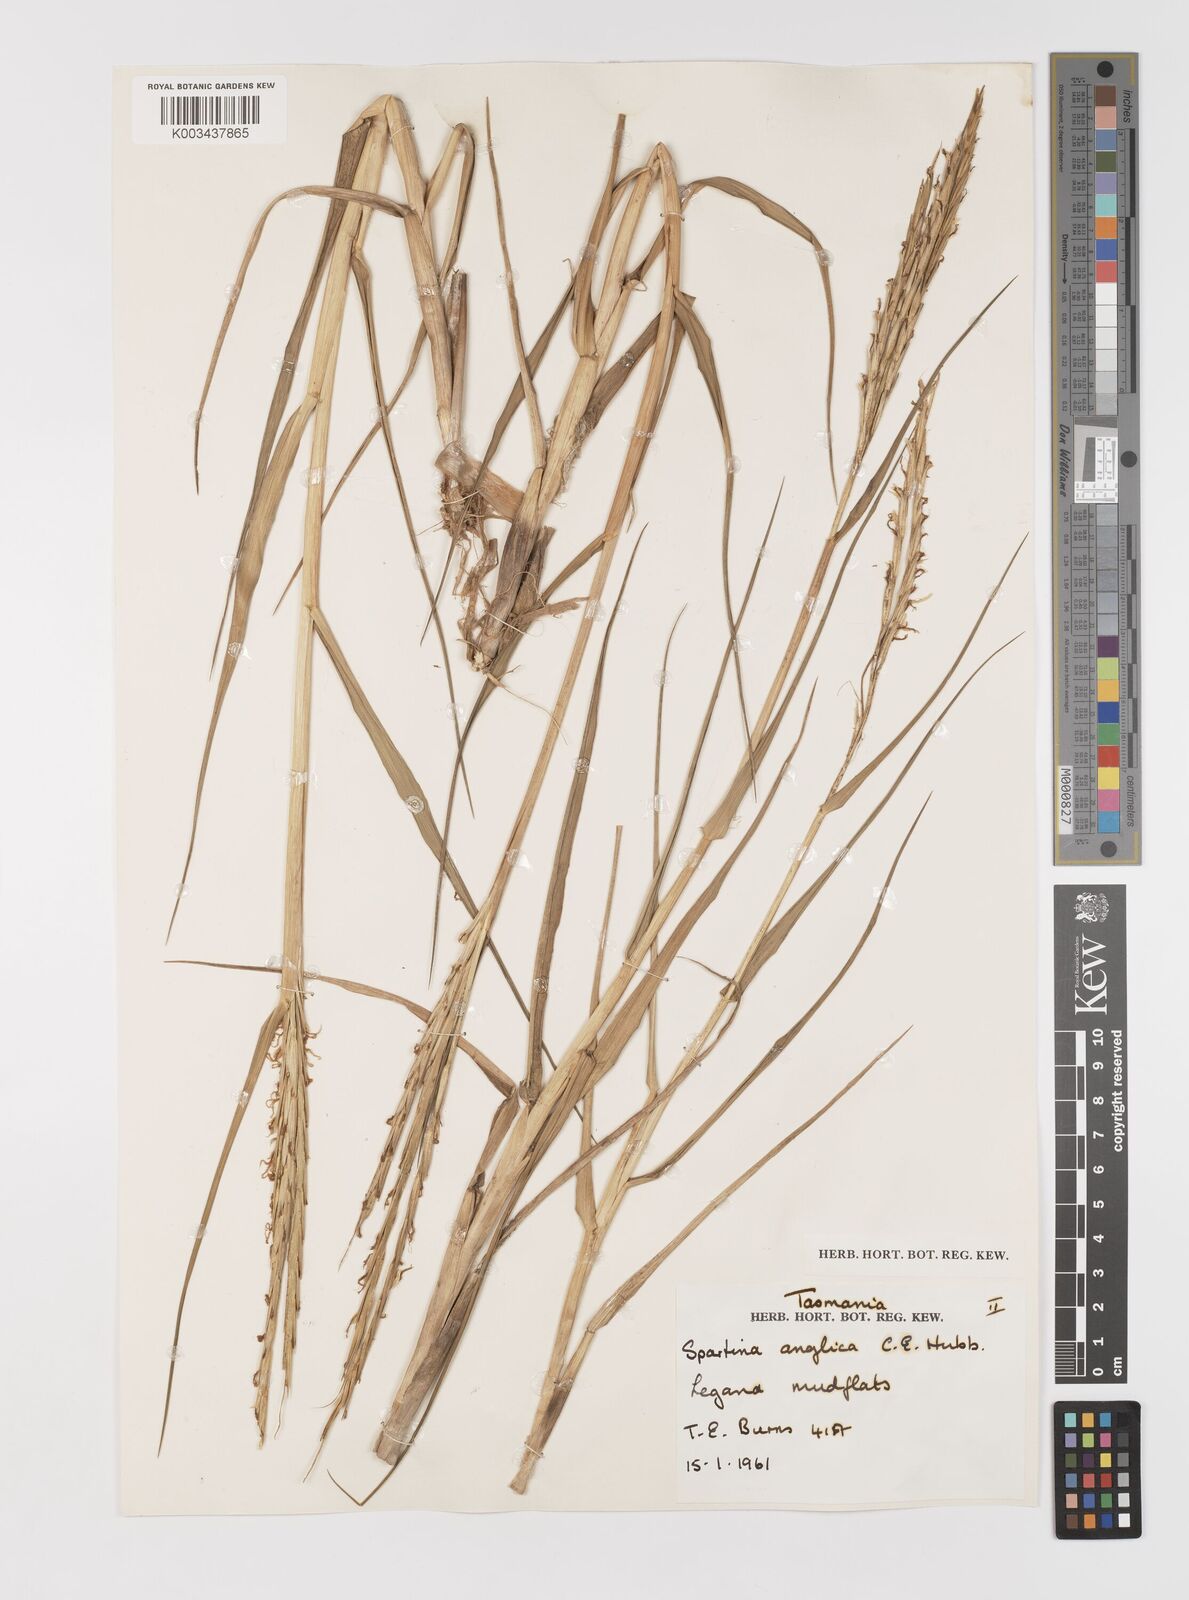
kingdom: Plantae
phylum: Tracheophyta
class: Liliopsida
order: Poales
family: Poaceae
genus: Sporobolus
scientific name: Sporobolus anglicus
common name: English cordgrass
